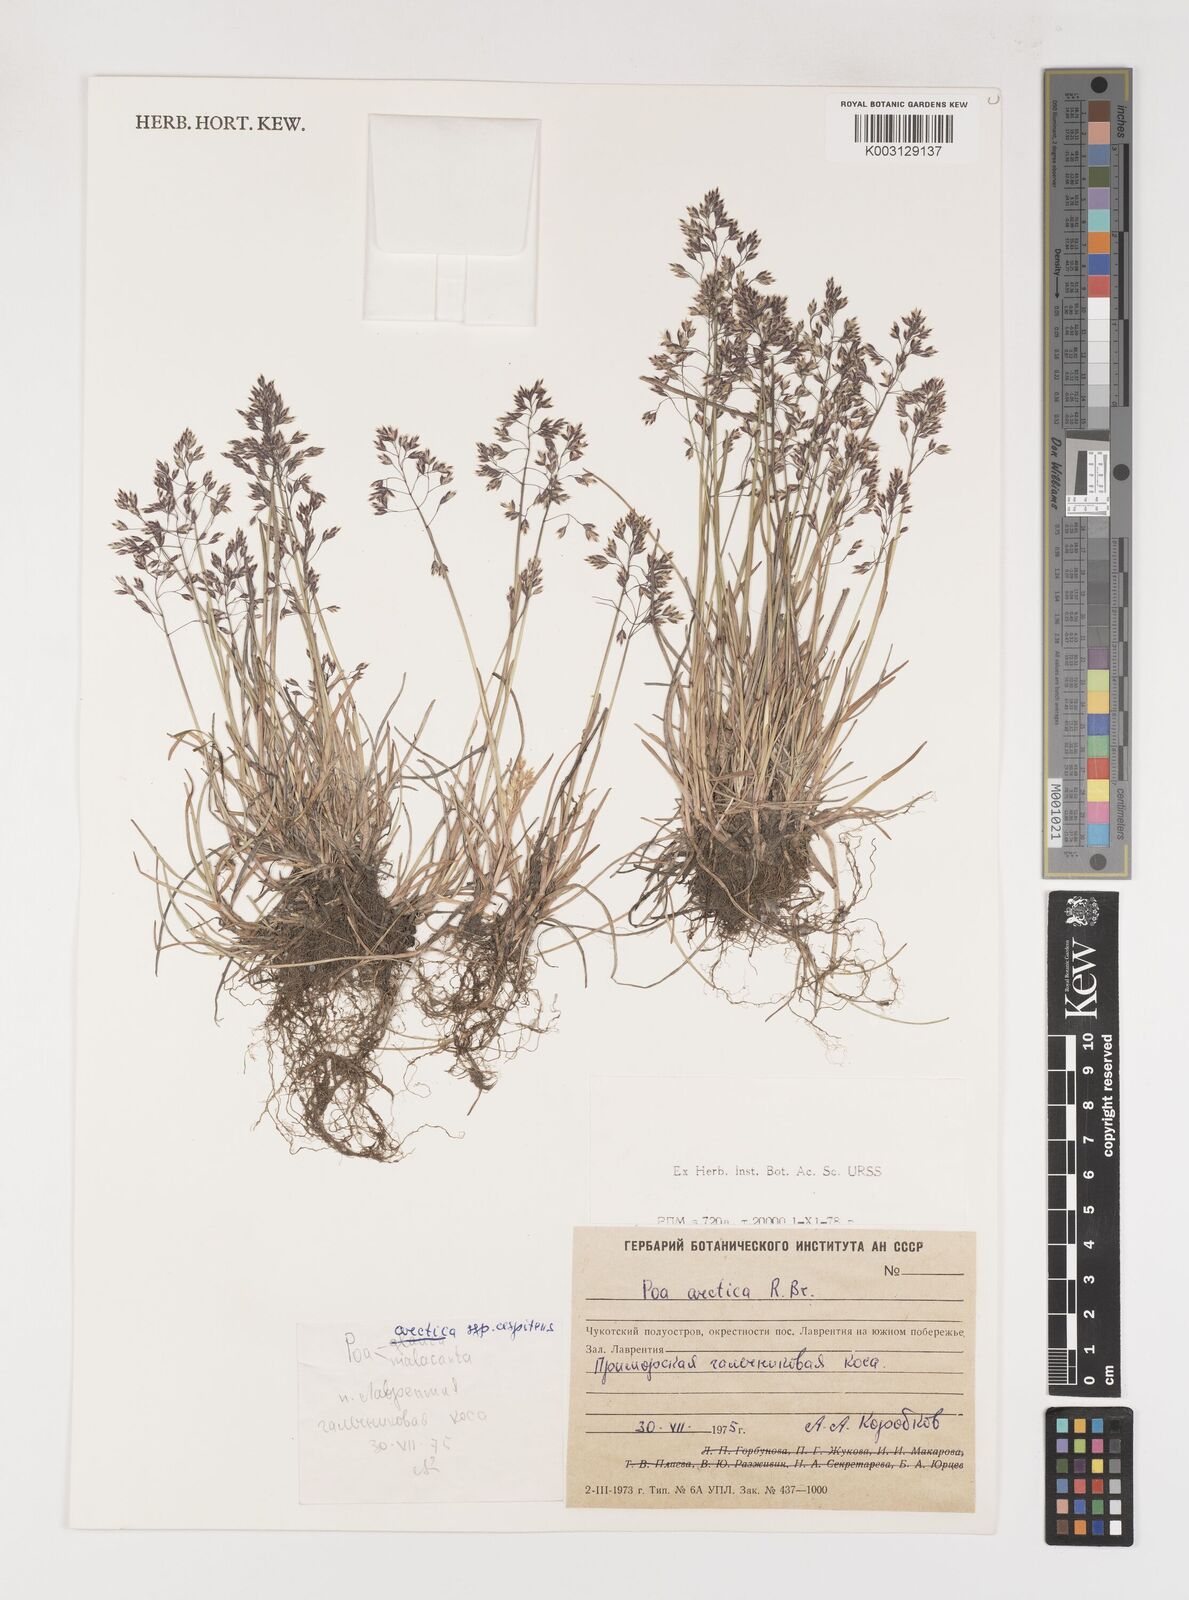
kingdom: Plantae
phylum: Tracheophyta
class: Liliopsida
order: Poales
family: Poaceae
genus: Poa
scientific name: Poa arctica
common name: Arctic bluegrass
